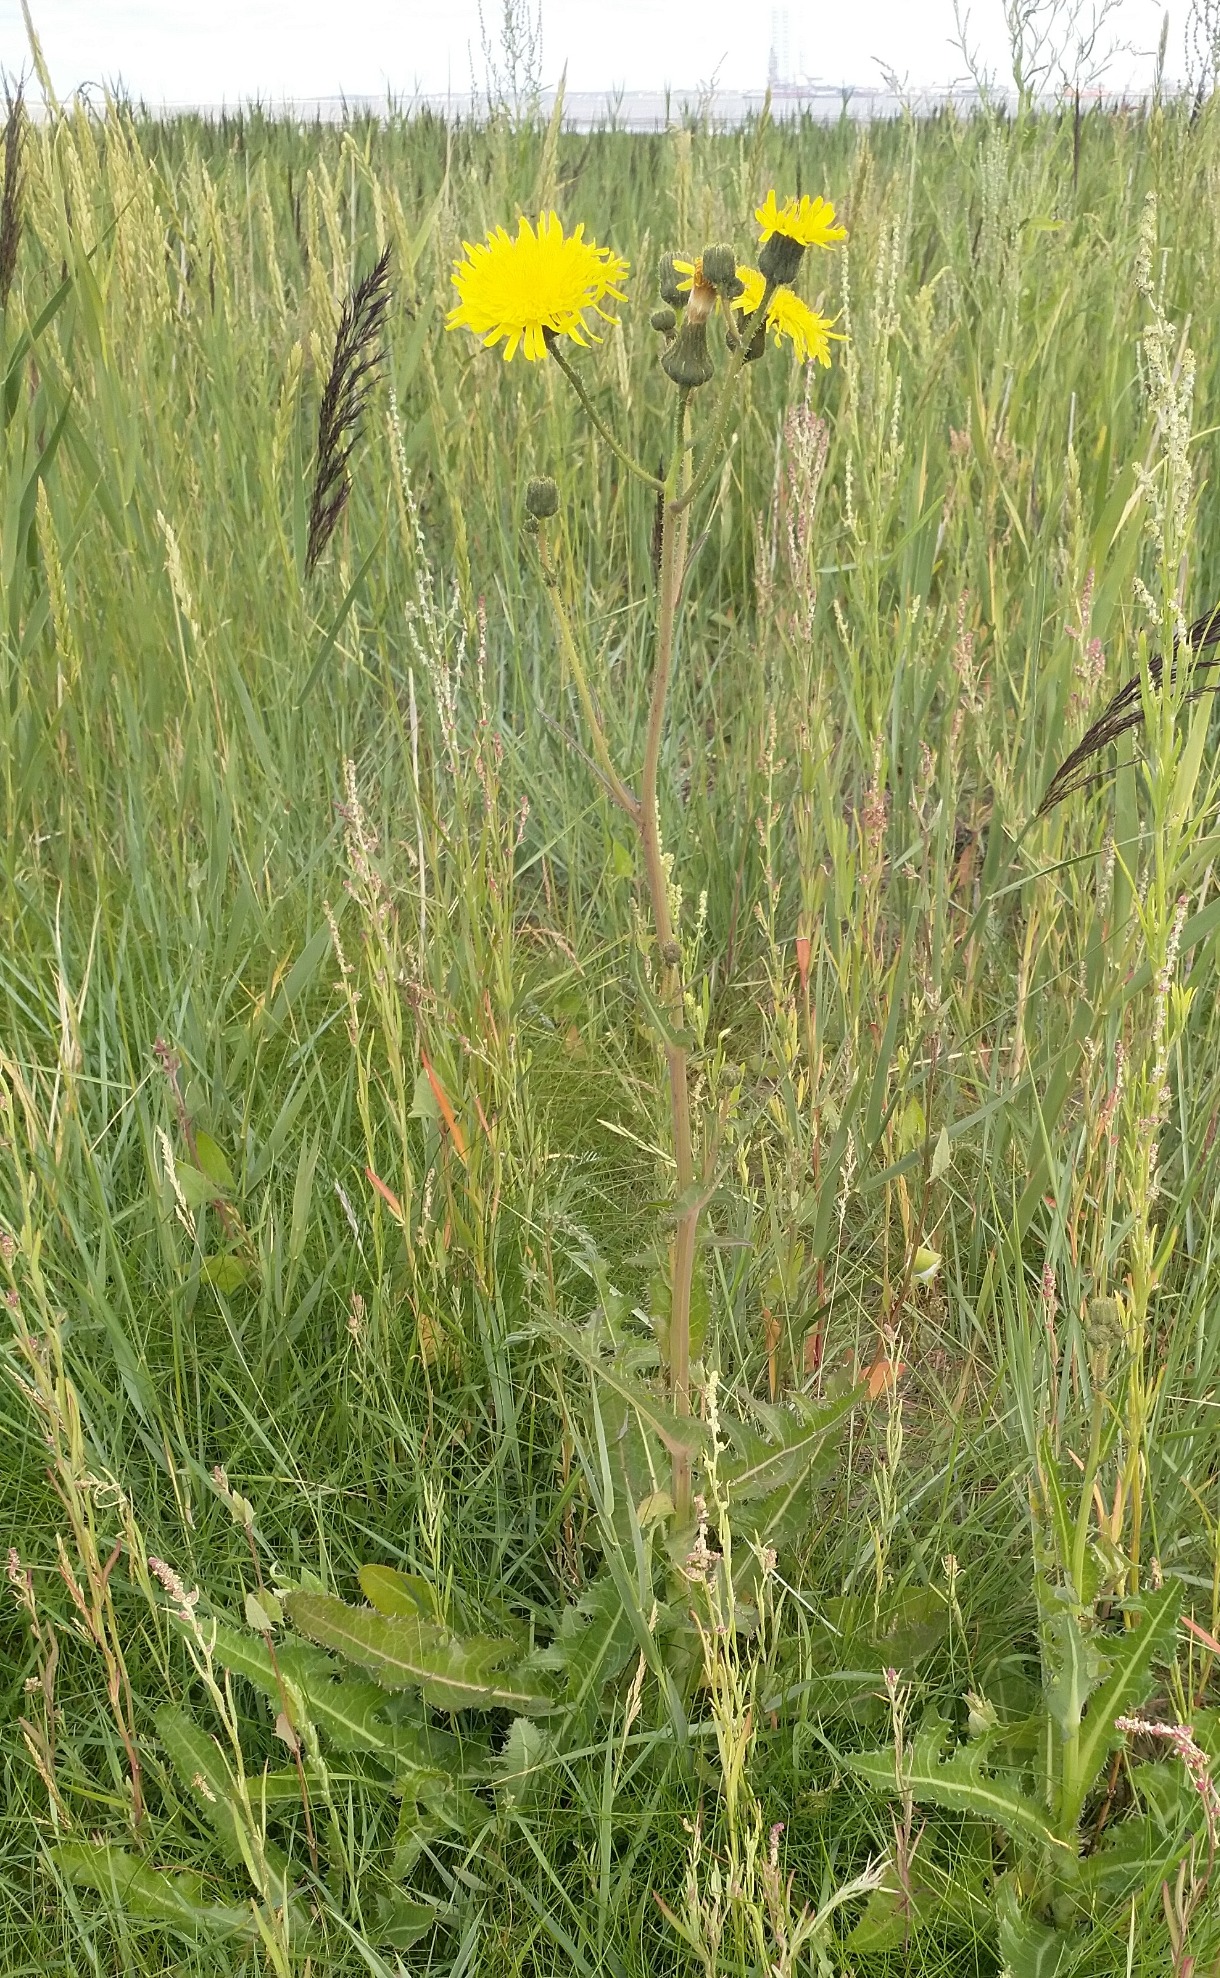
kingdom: Plantae
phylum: Tracheophyta
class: Magnoliopsida
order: Asterales
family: Asteraceae
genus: Sonchus
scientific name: Sonchus arvensis
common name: Ager-svinemælk
